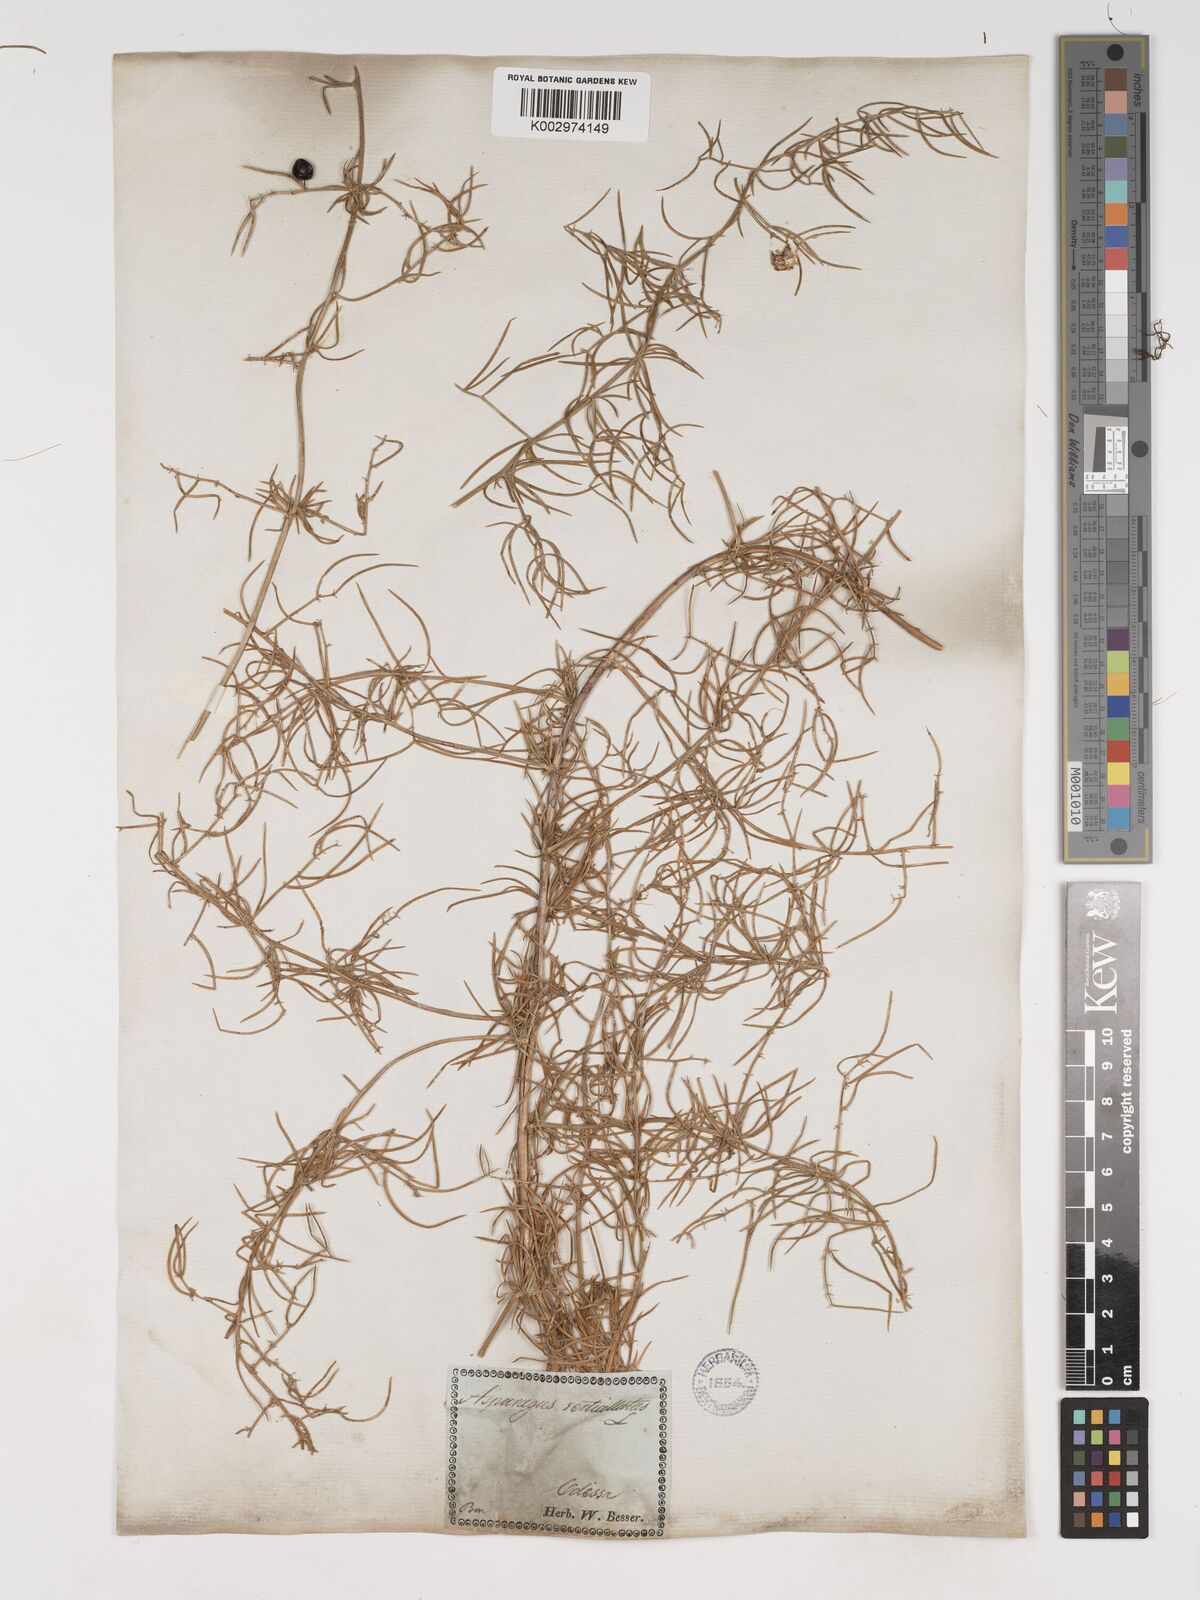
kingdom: Plantae
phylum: Tracheophyta
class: Liliopsida
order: Asparagales
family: Asparagaceae
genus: Asparagus
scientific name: Asparagus verticillatus
